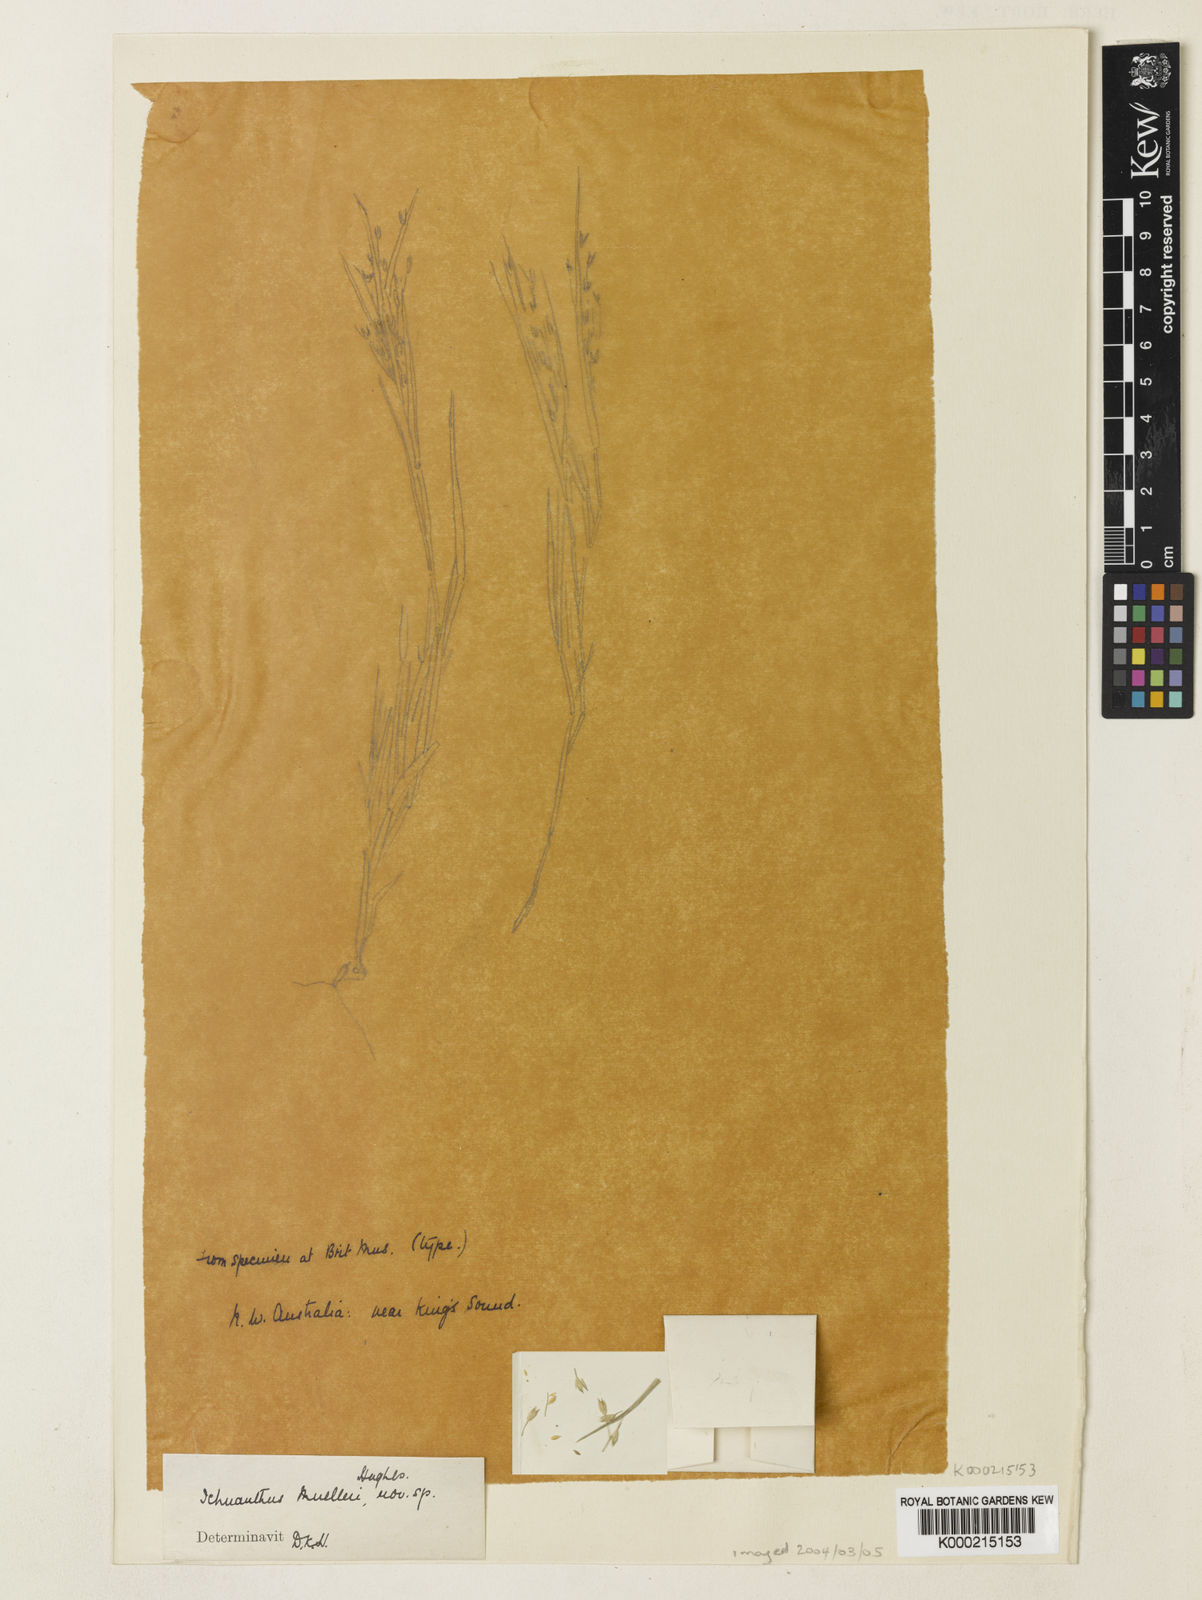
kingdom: Plantae
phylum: Tracheophyta
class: Liliopsida
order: Poales
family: Poaceae
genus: Panicum
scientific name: Panicum muelleri
